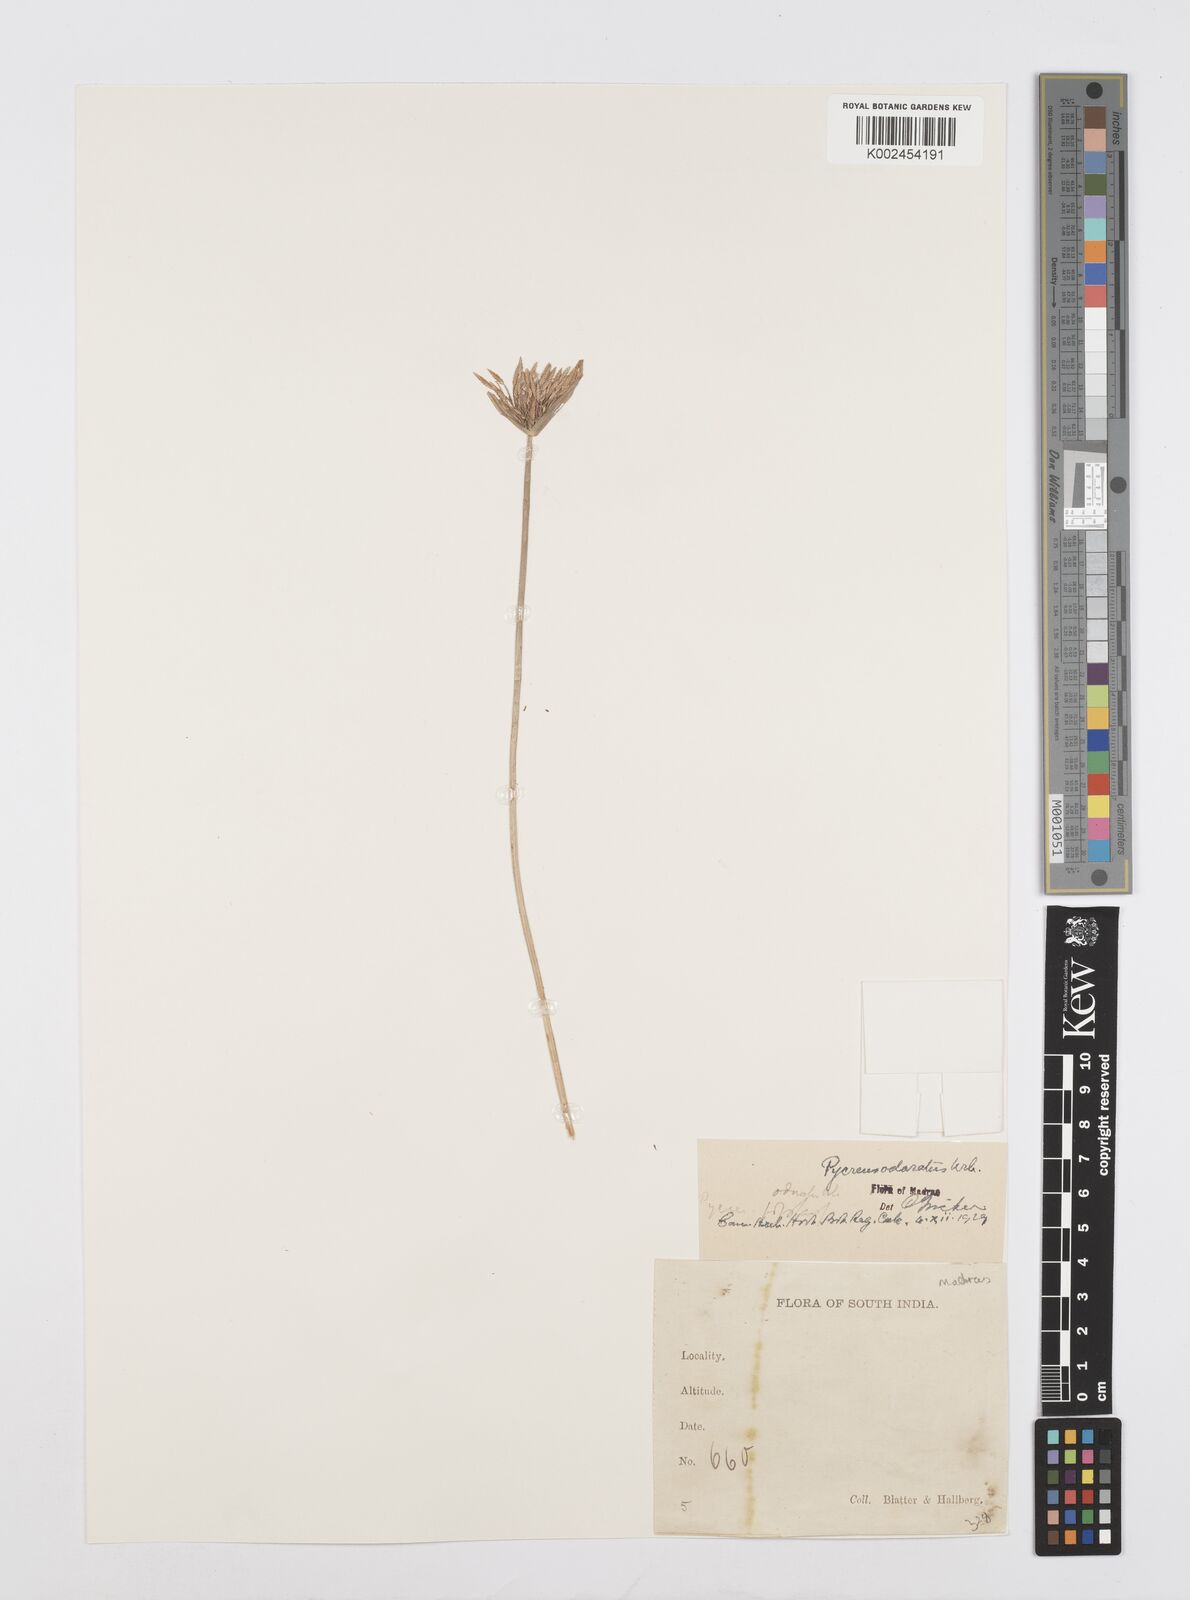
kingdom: Plantae
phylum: Tracheophyta
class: Liliopsida
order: Poales
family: Cyperaceae
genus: Cyperus
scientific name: Cyperus polystachyos
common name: Bunchy flat sedge
